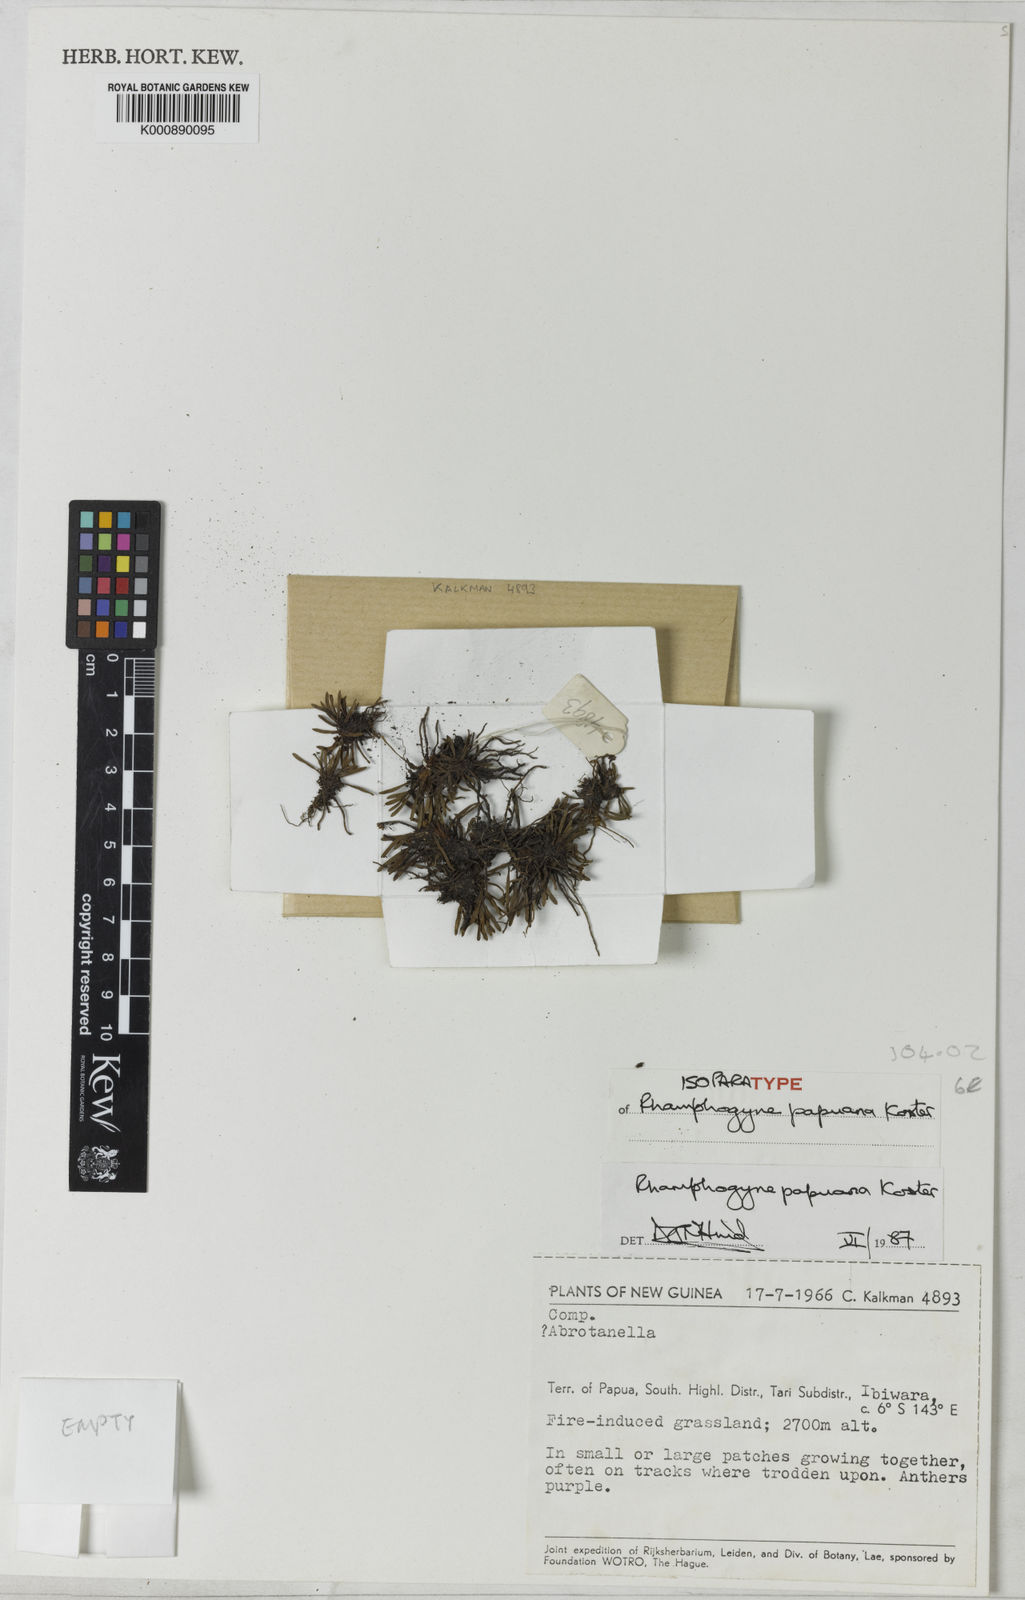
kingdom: Plantae
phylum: Tracheophyta
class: Magnoliopsida
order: Asterales
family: Asteraceae
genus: Lagenocypsela
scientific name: Lagenocypsela papuana
